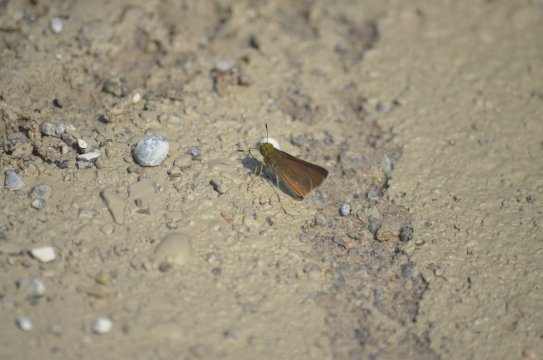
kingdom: Animalia
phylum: Arthropoda
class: Insecta
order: Lepidoptera
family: Hesperiidae
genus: Polites
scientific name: Polites
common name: Crossline Skipper
